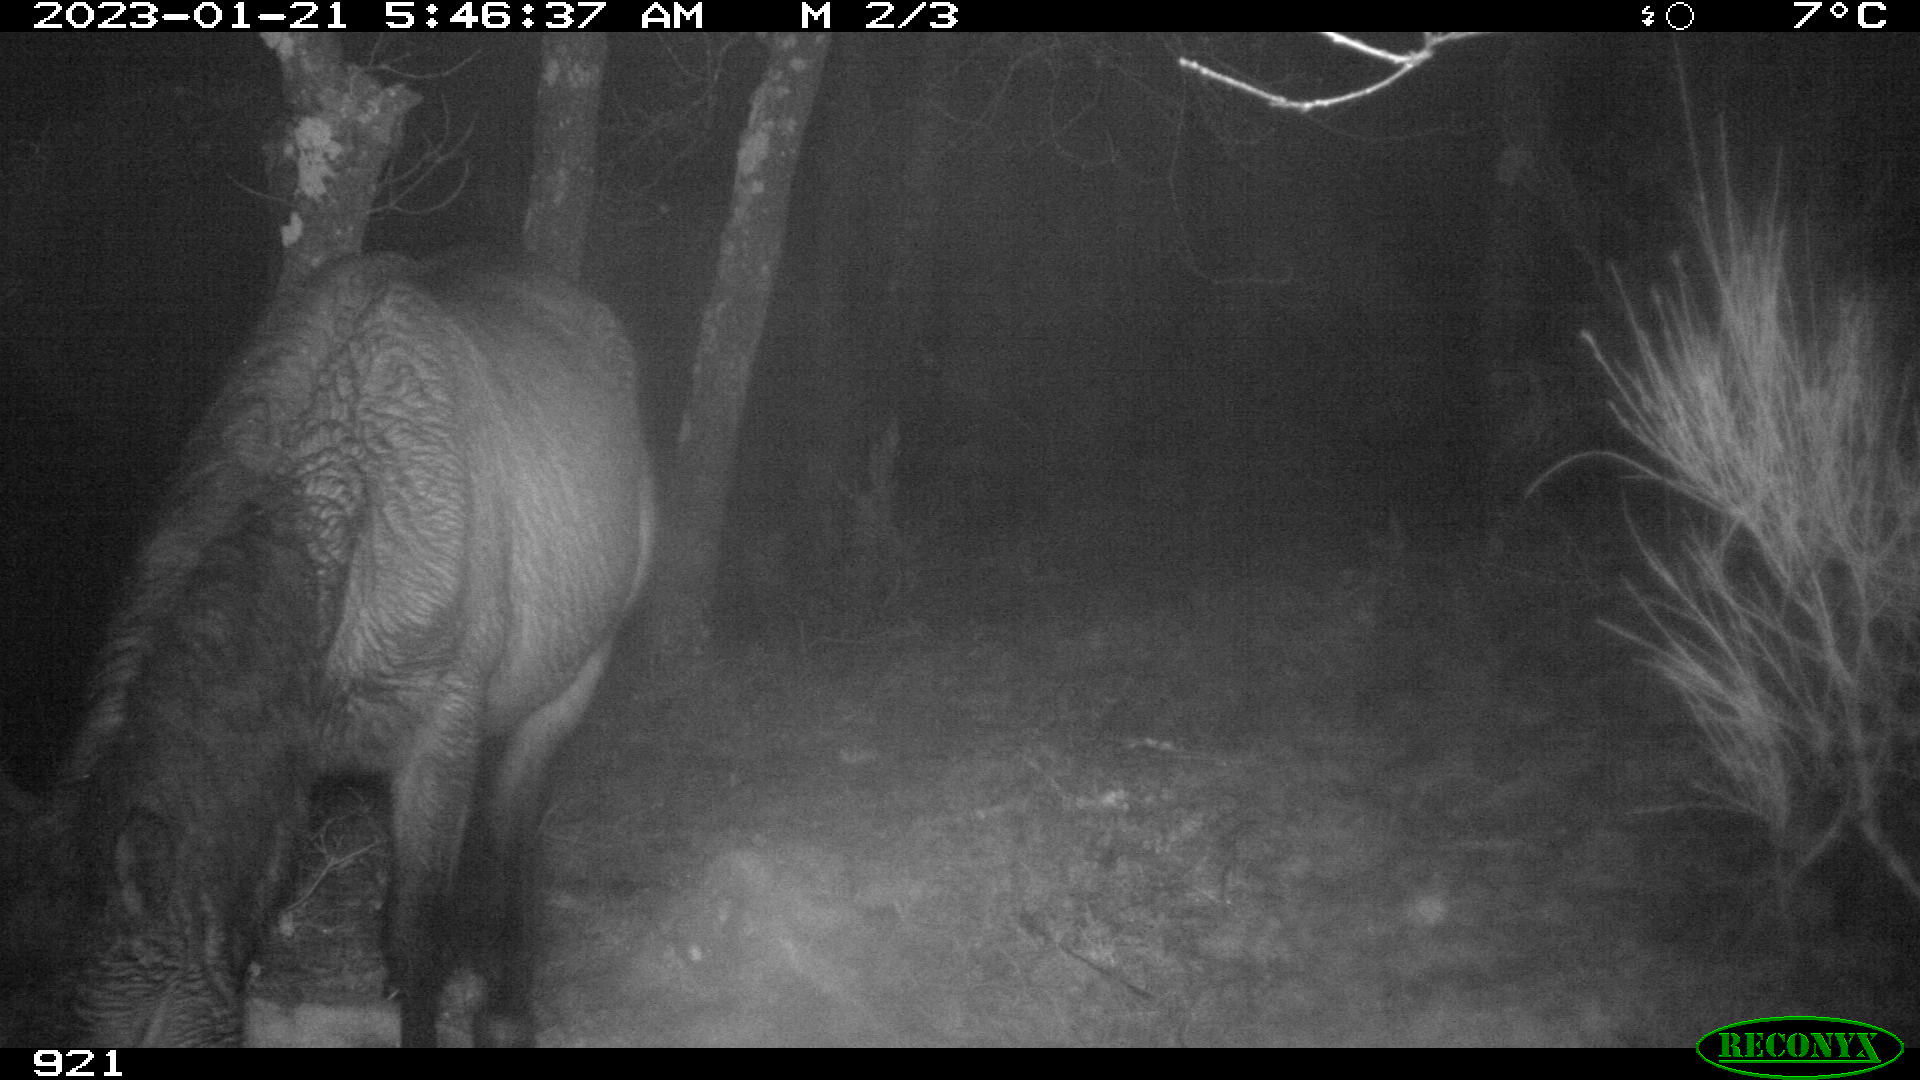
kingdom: Animalia
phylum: Chordata
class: Mammalia
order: Perissodactyla
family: Equidae
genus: Equus
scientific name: Equus caballus
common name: Horse
